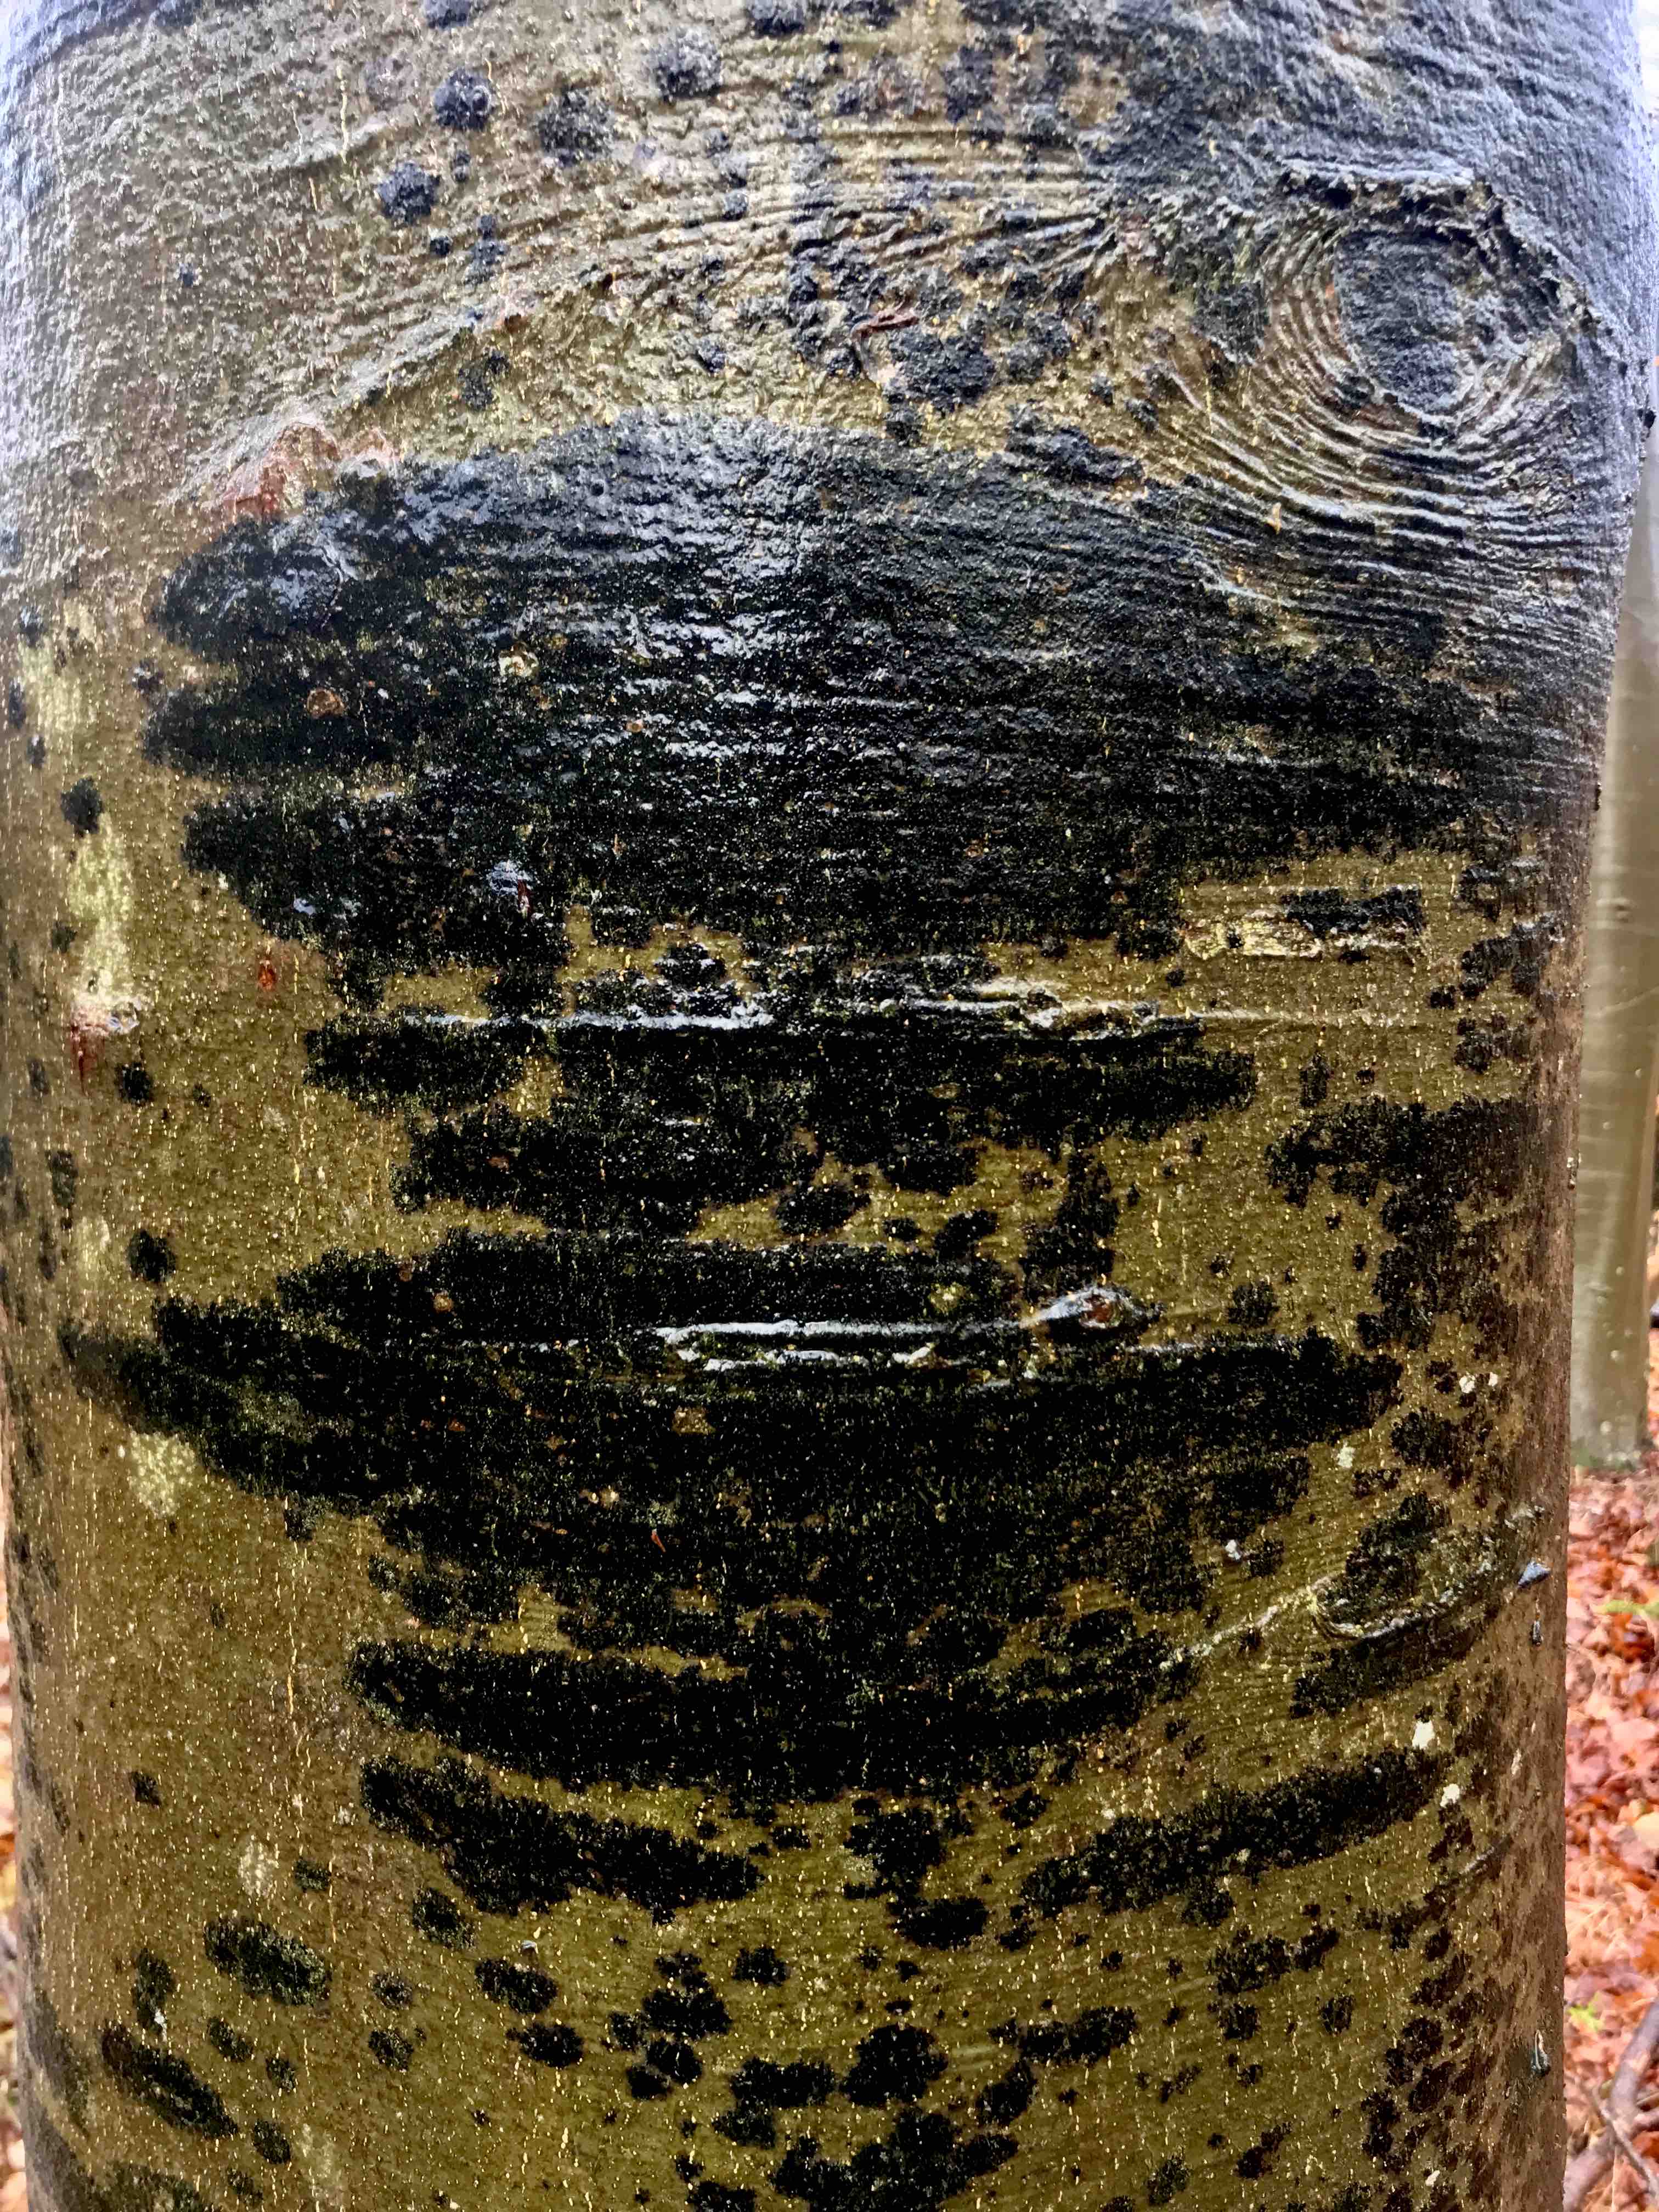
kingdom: Fungi
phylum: Ascomycota
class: Leotiomycetes
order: Rhytismatales
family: Ascodichaenaceae
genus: Ascodichaena
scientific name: Ascodichaena rugosa
